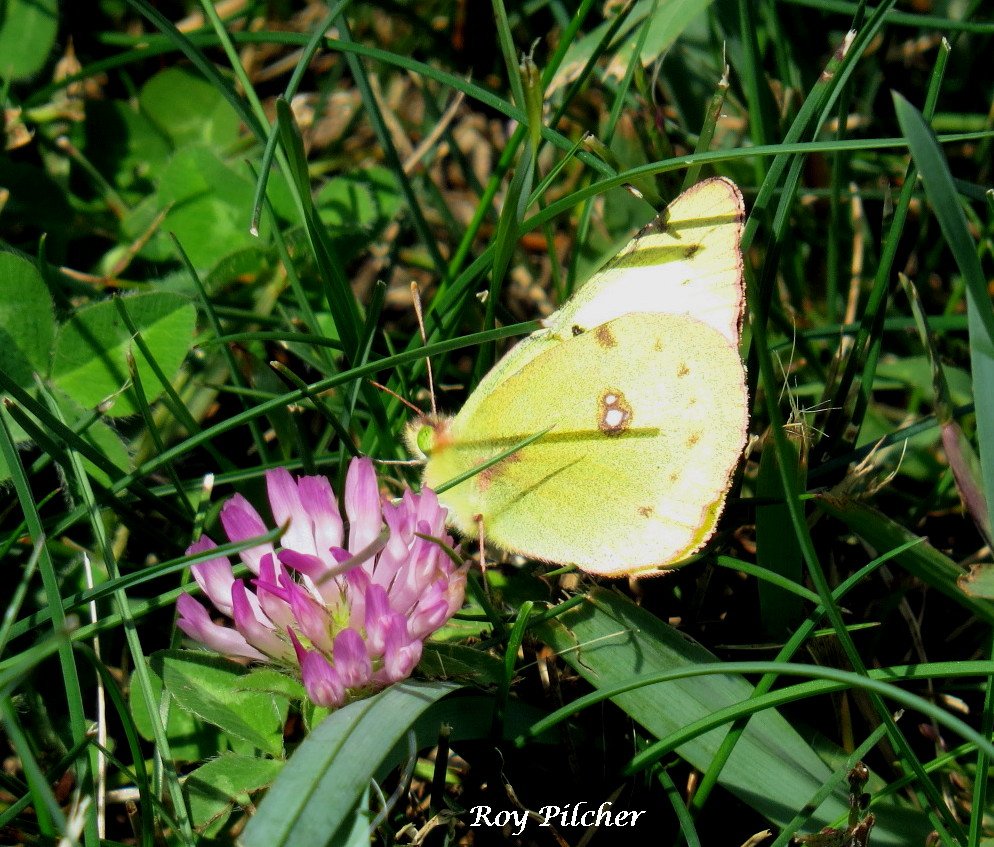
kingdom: Animalia
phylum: Arthropoda
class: Insecta
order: Lepidoptera
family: Pieridae
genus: Colias
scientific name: Colias philodice
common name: Clouded Sulphur
